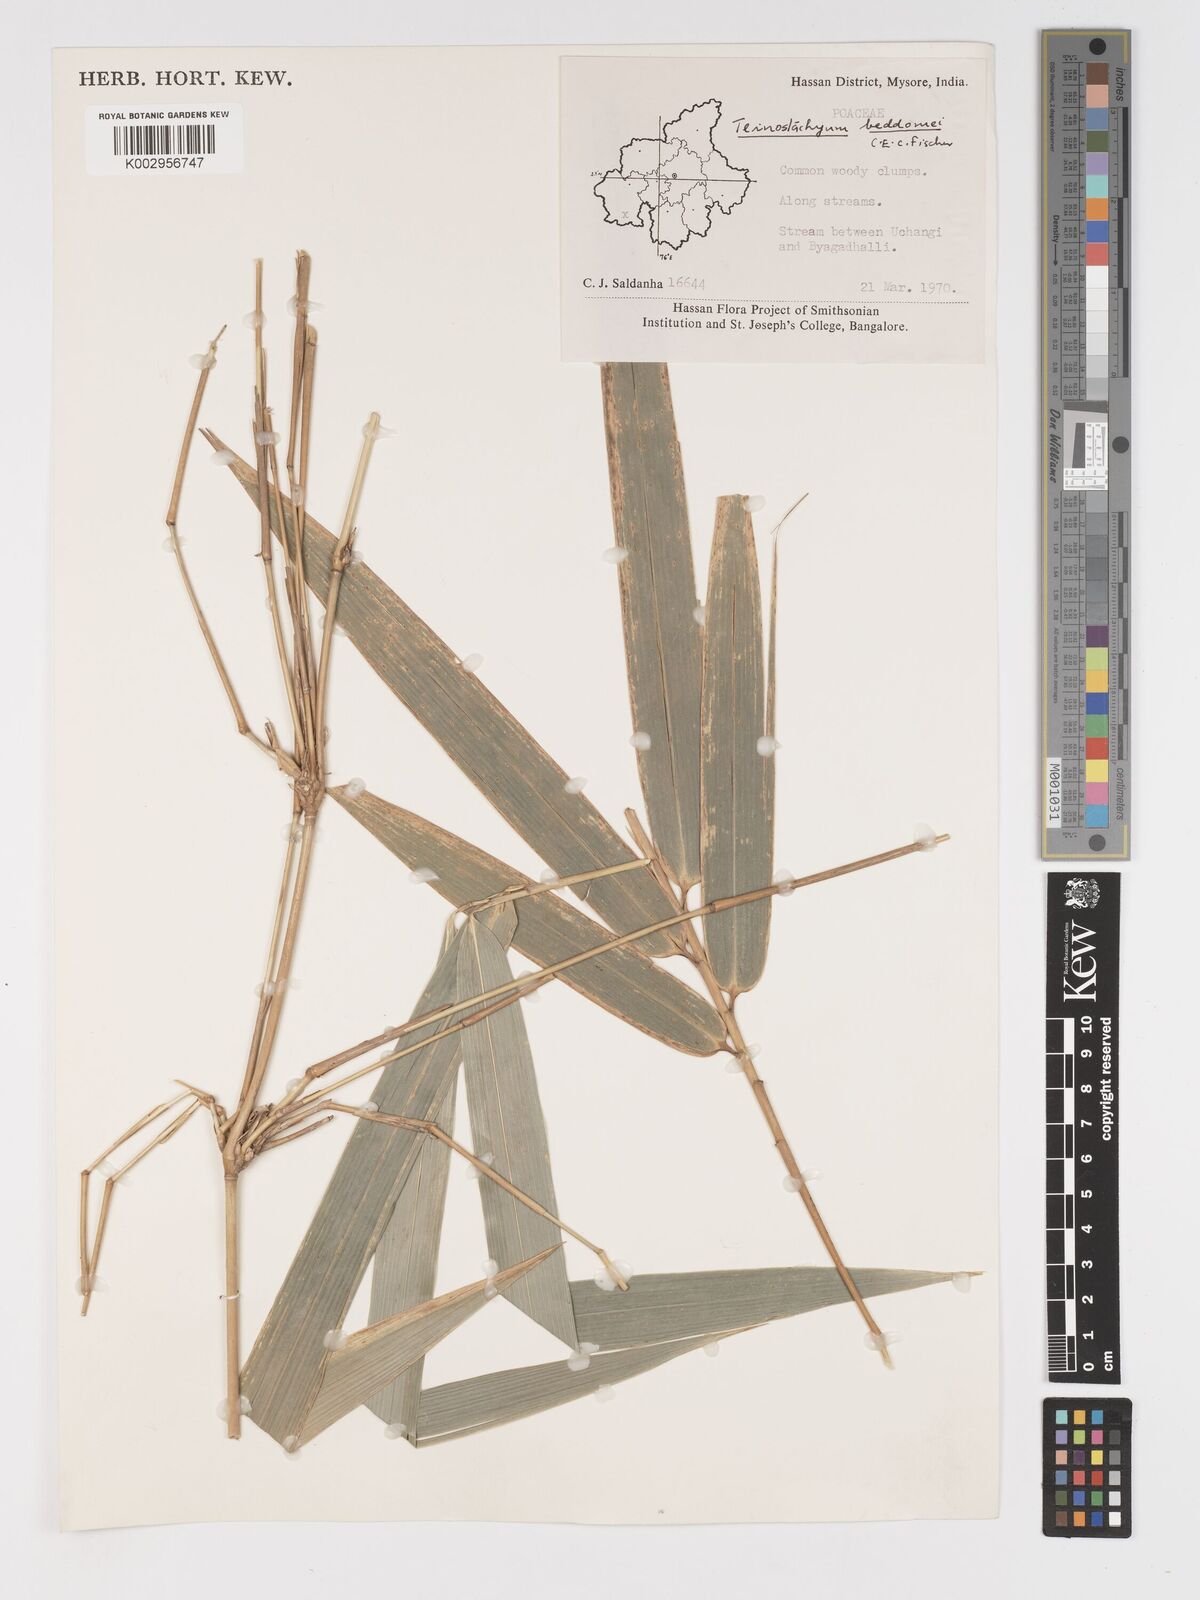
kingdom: Plantae
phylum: Tracheophyta
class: Liliopsida
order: Poales
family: Poaceae
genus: Schizostachyum
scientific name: Schizostachyum beddomei
